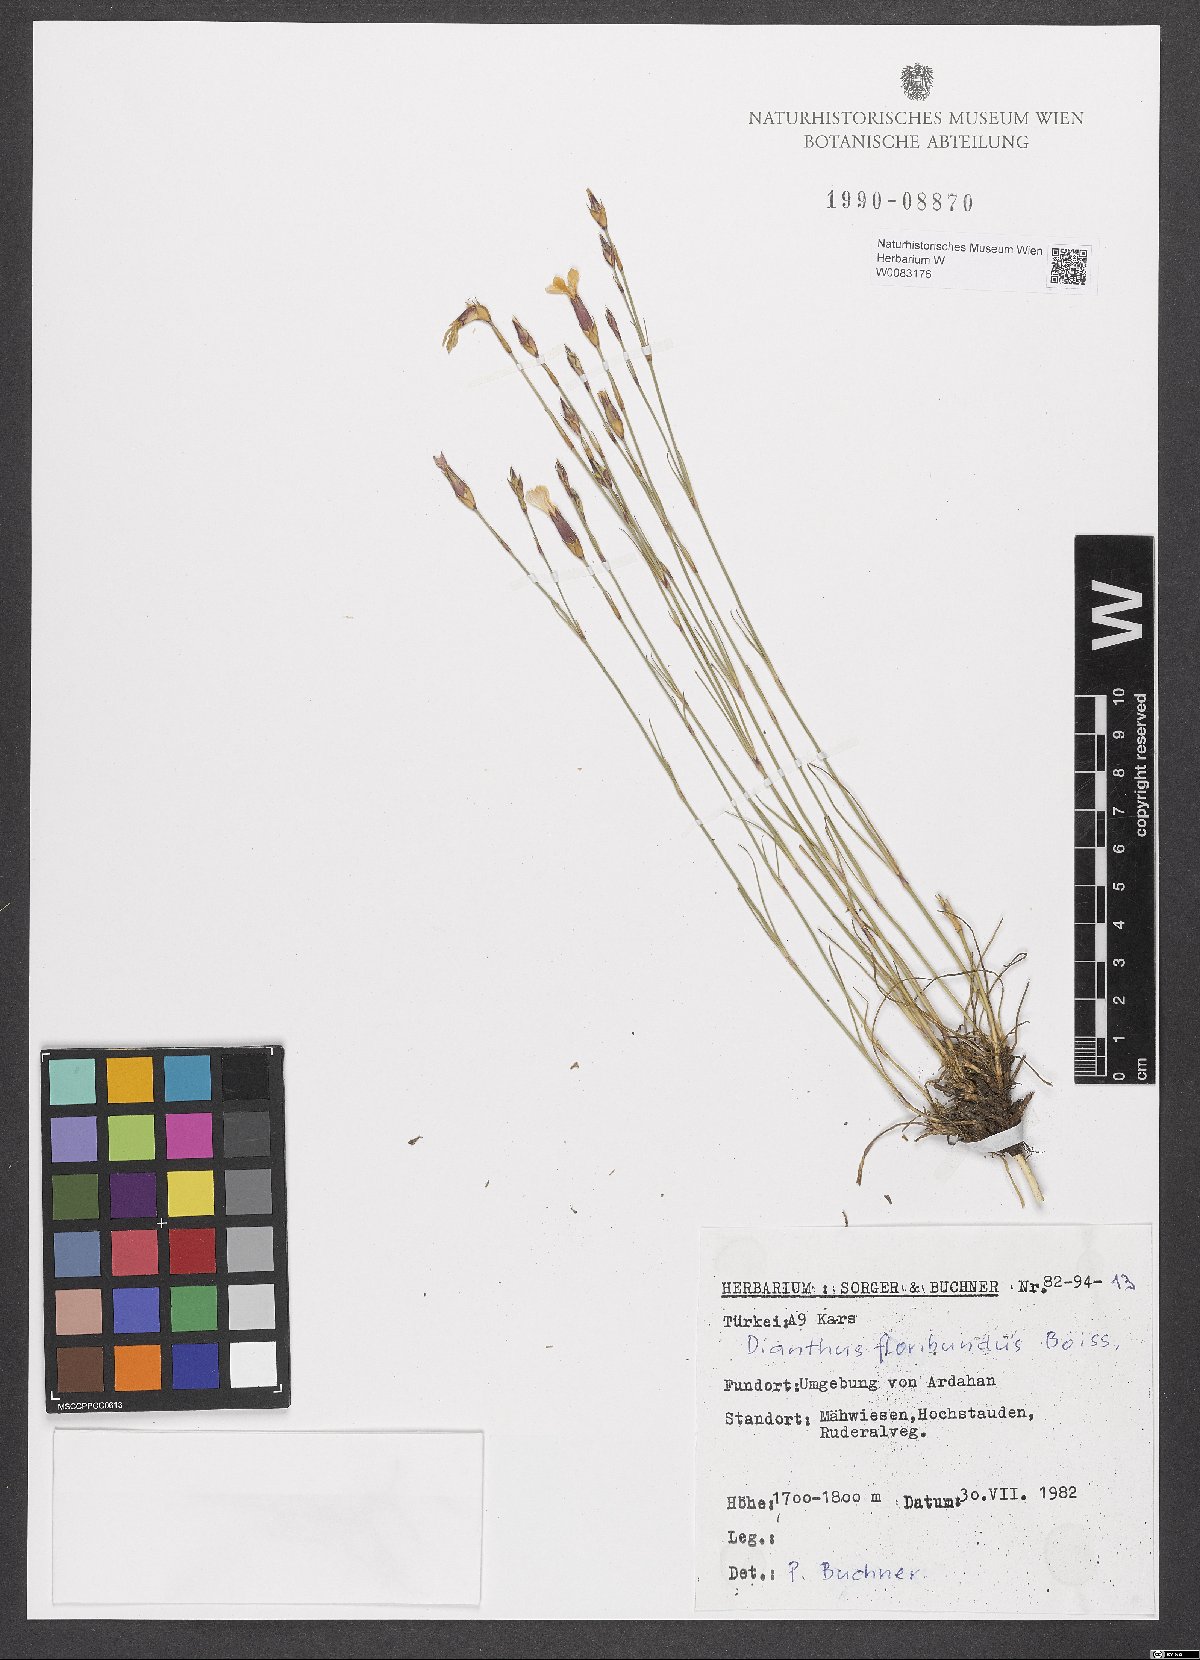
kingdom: Plantae
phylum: Tracheophyta
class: Magnoliopsida
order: Caryophyllales
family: Caryophyllaceae
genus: Dianthus
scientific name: Dianthus floribundus
